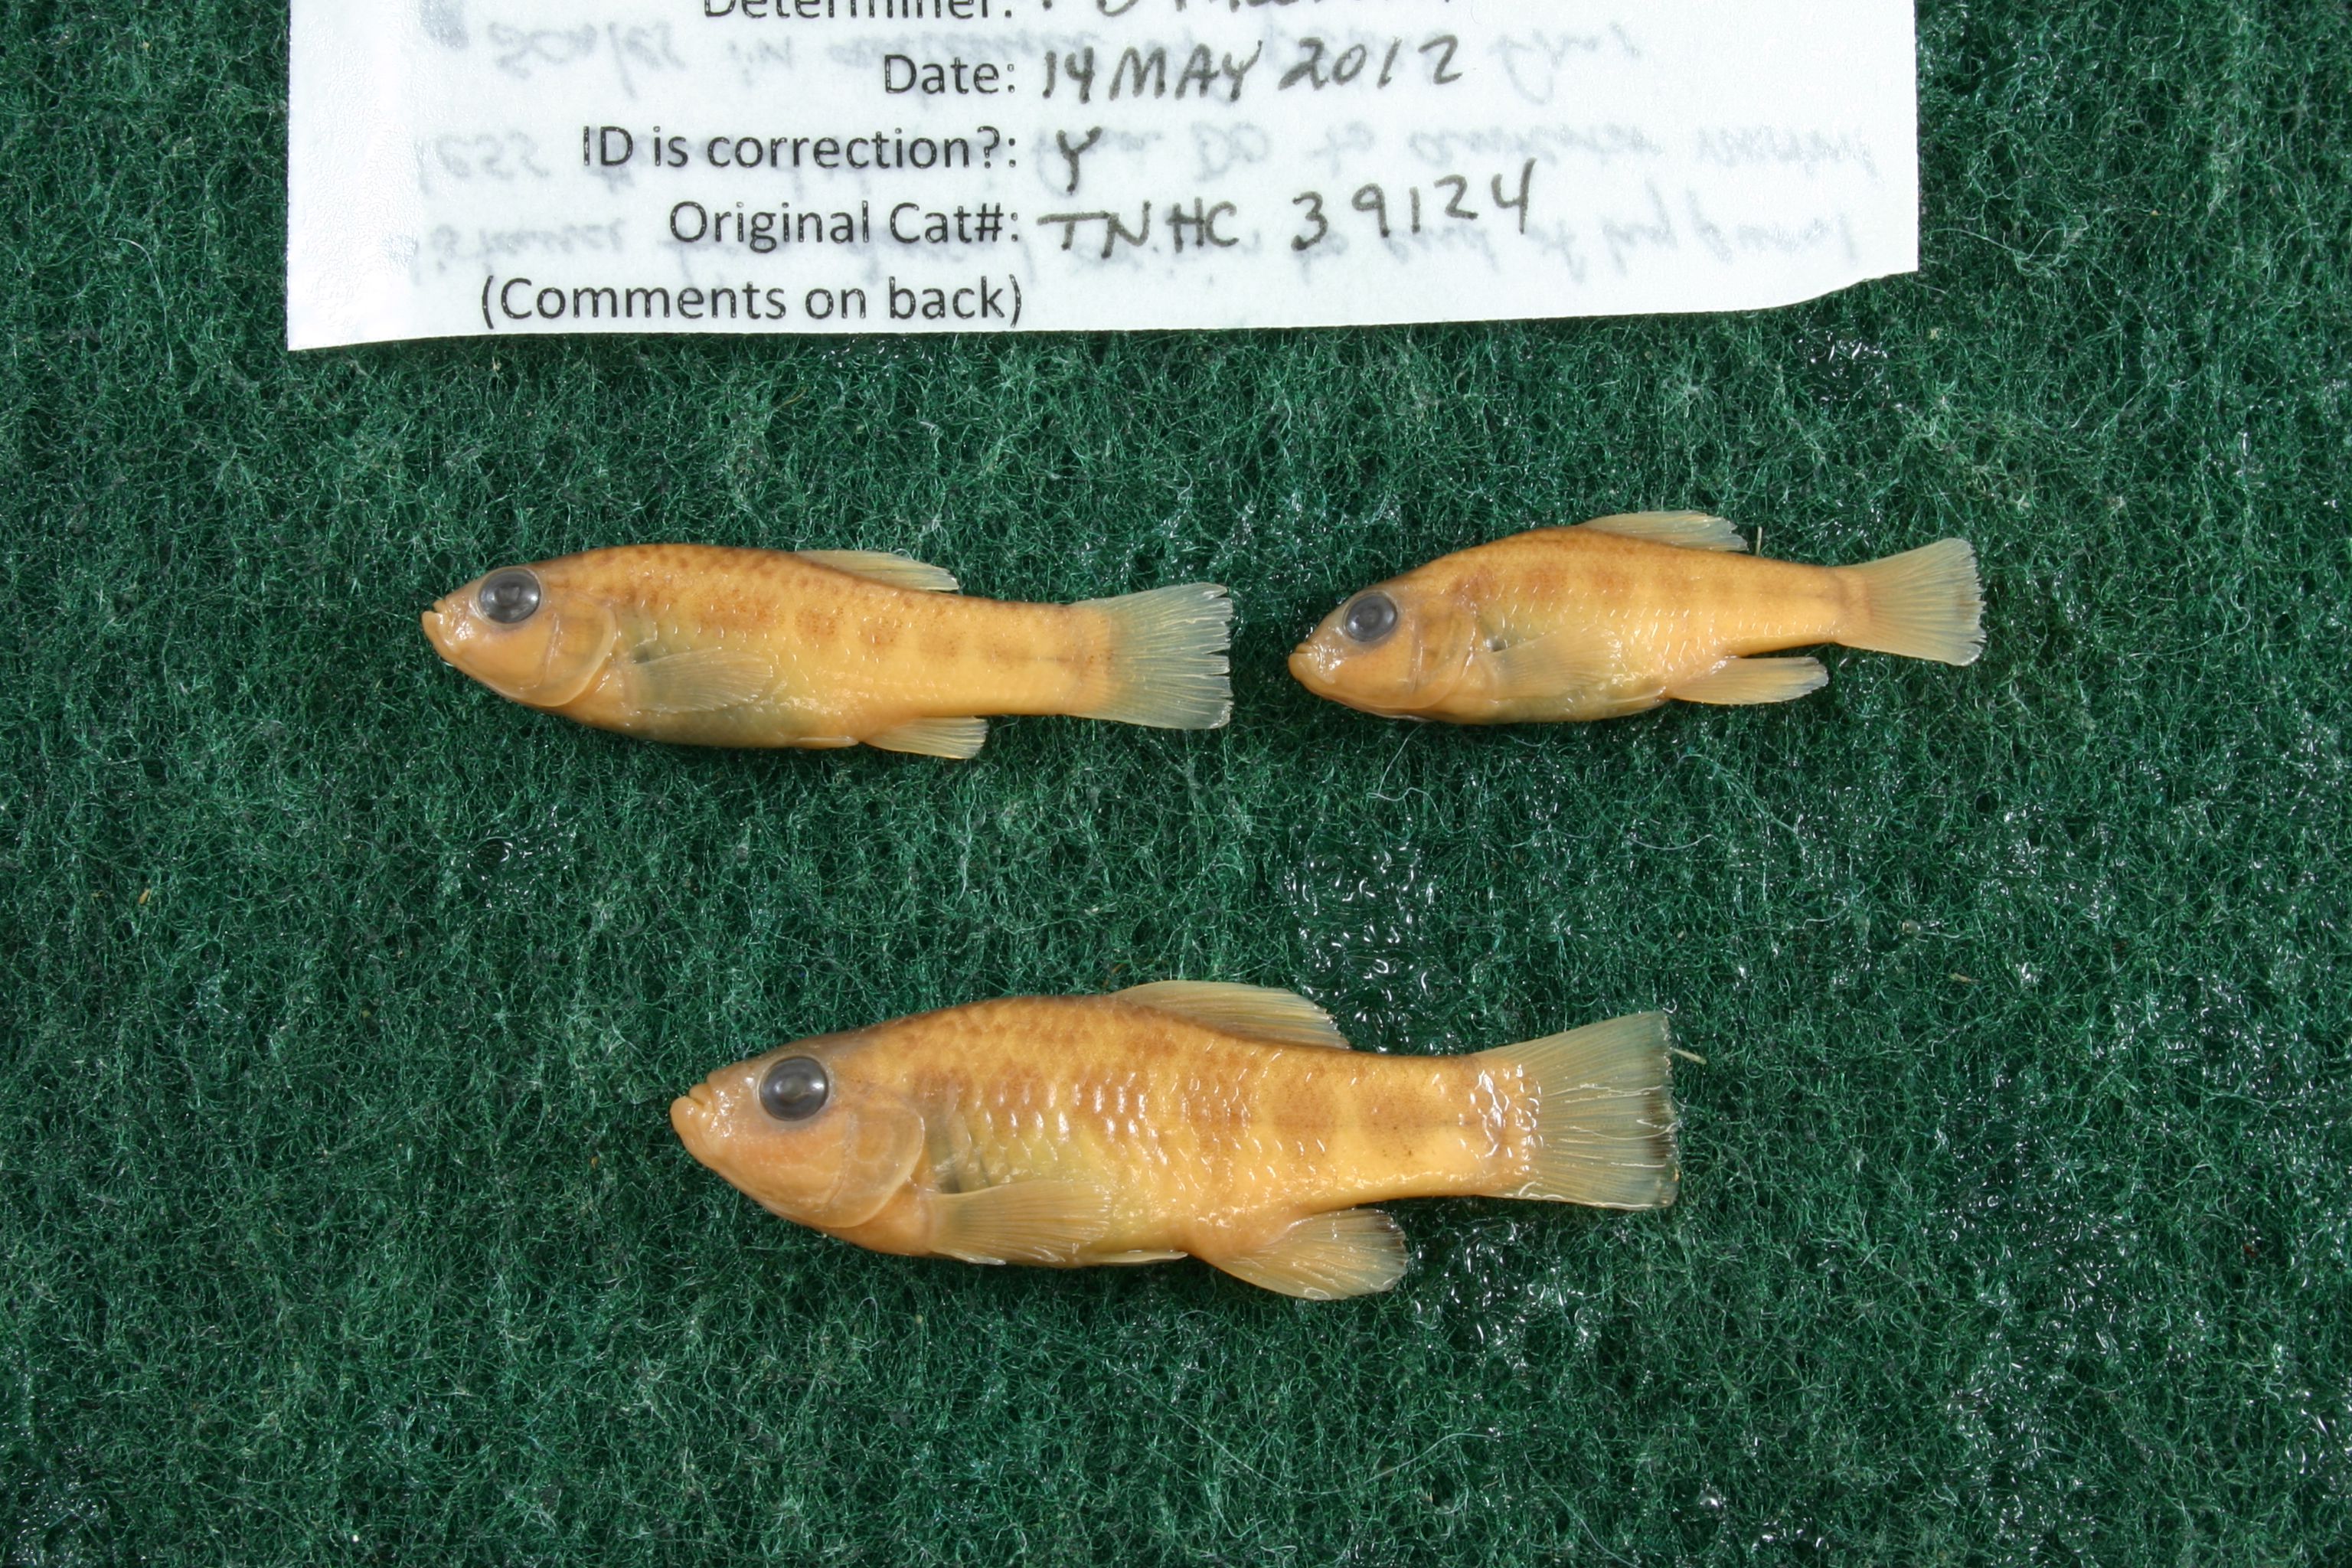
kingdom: Animalia
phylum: Chordata
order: Cyprinodontiformes
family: Cyprinodontidae
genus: Cyprinodon
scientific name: Cyprinodon eximius
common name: Conchos pupfish
